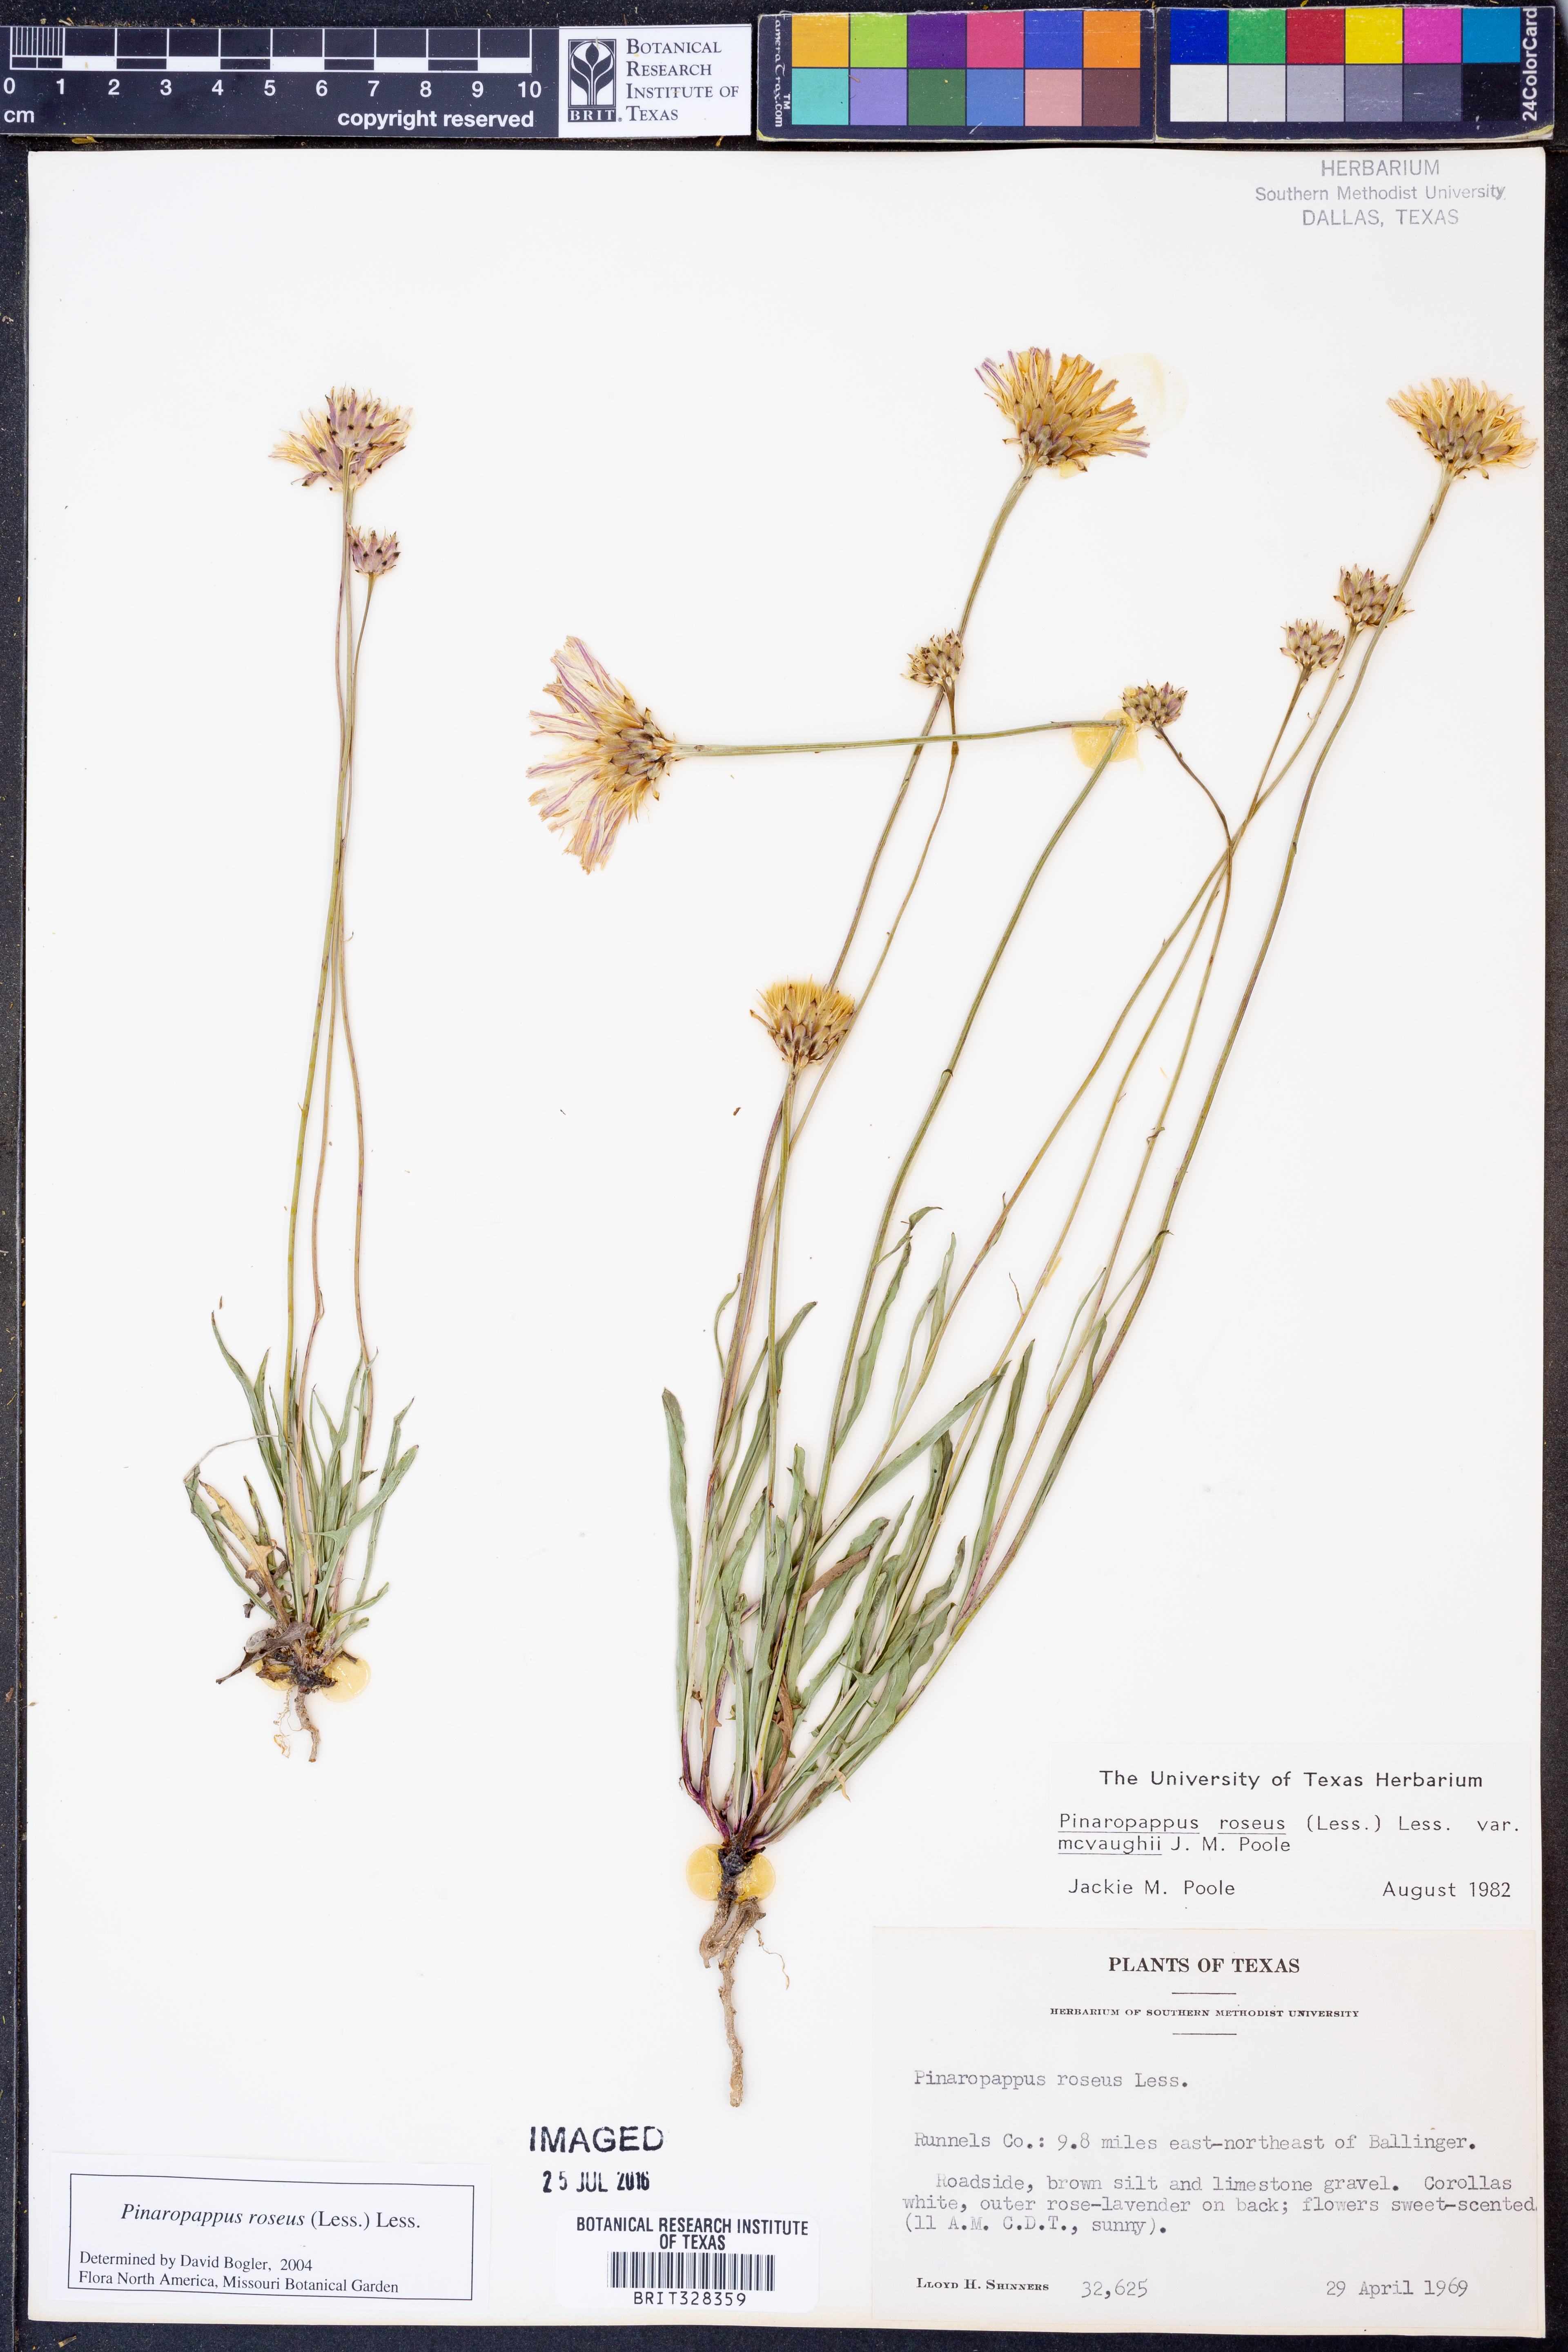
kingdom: Plantae
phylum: Tracheophyta
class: Magnoliopsida
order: Asterales
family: Asteraceae
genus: Pinaropappus
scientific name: Pinaropappus roseus
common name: Rock-lettuce
